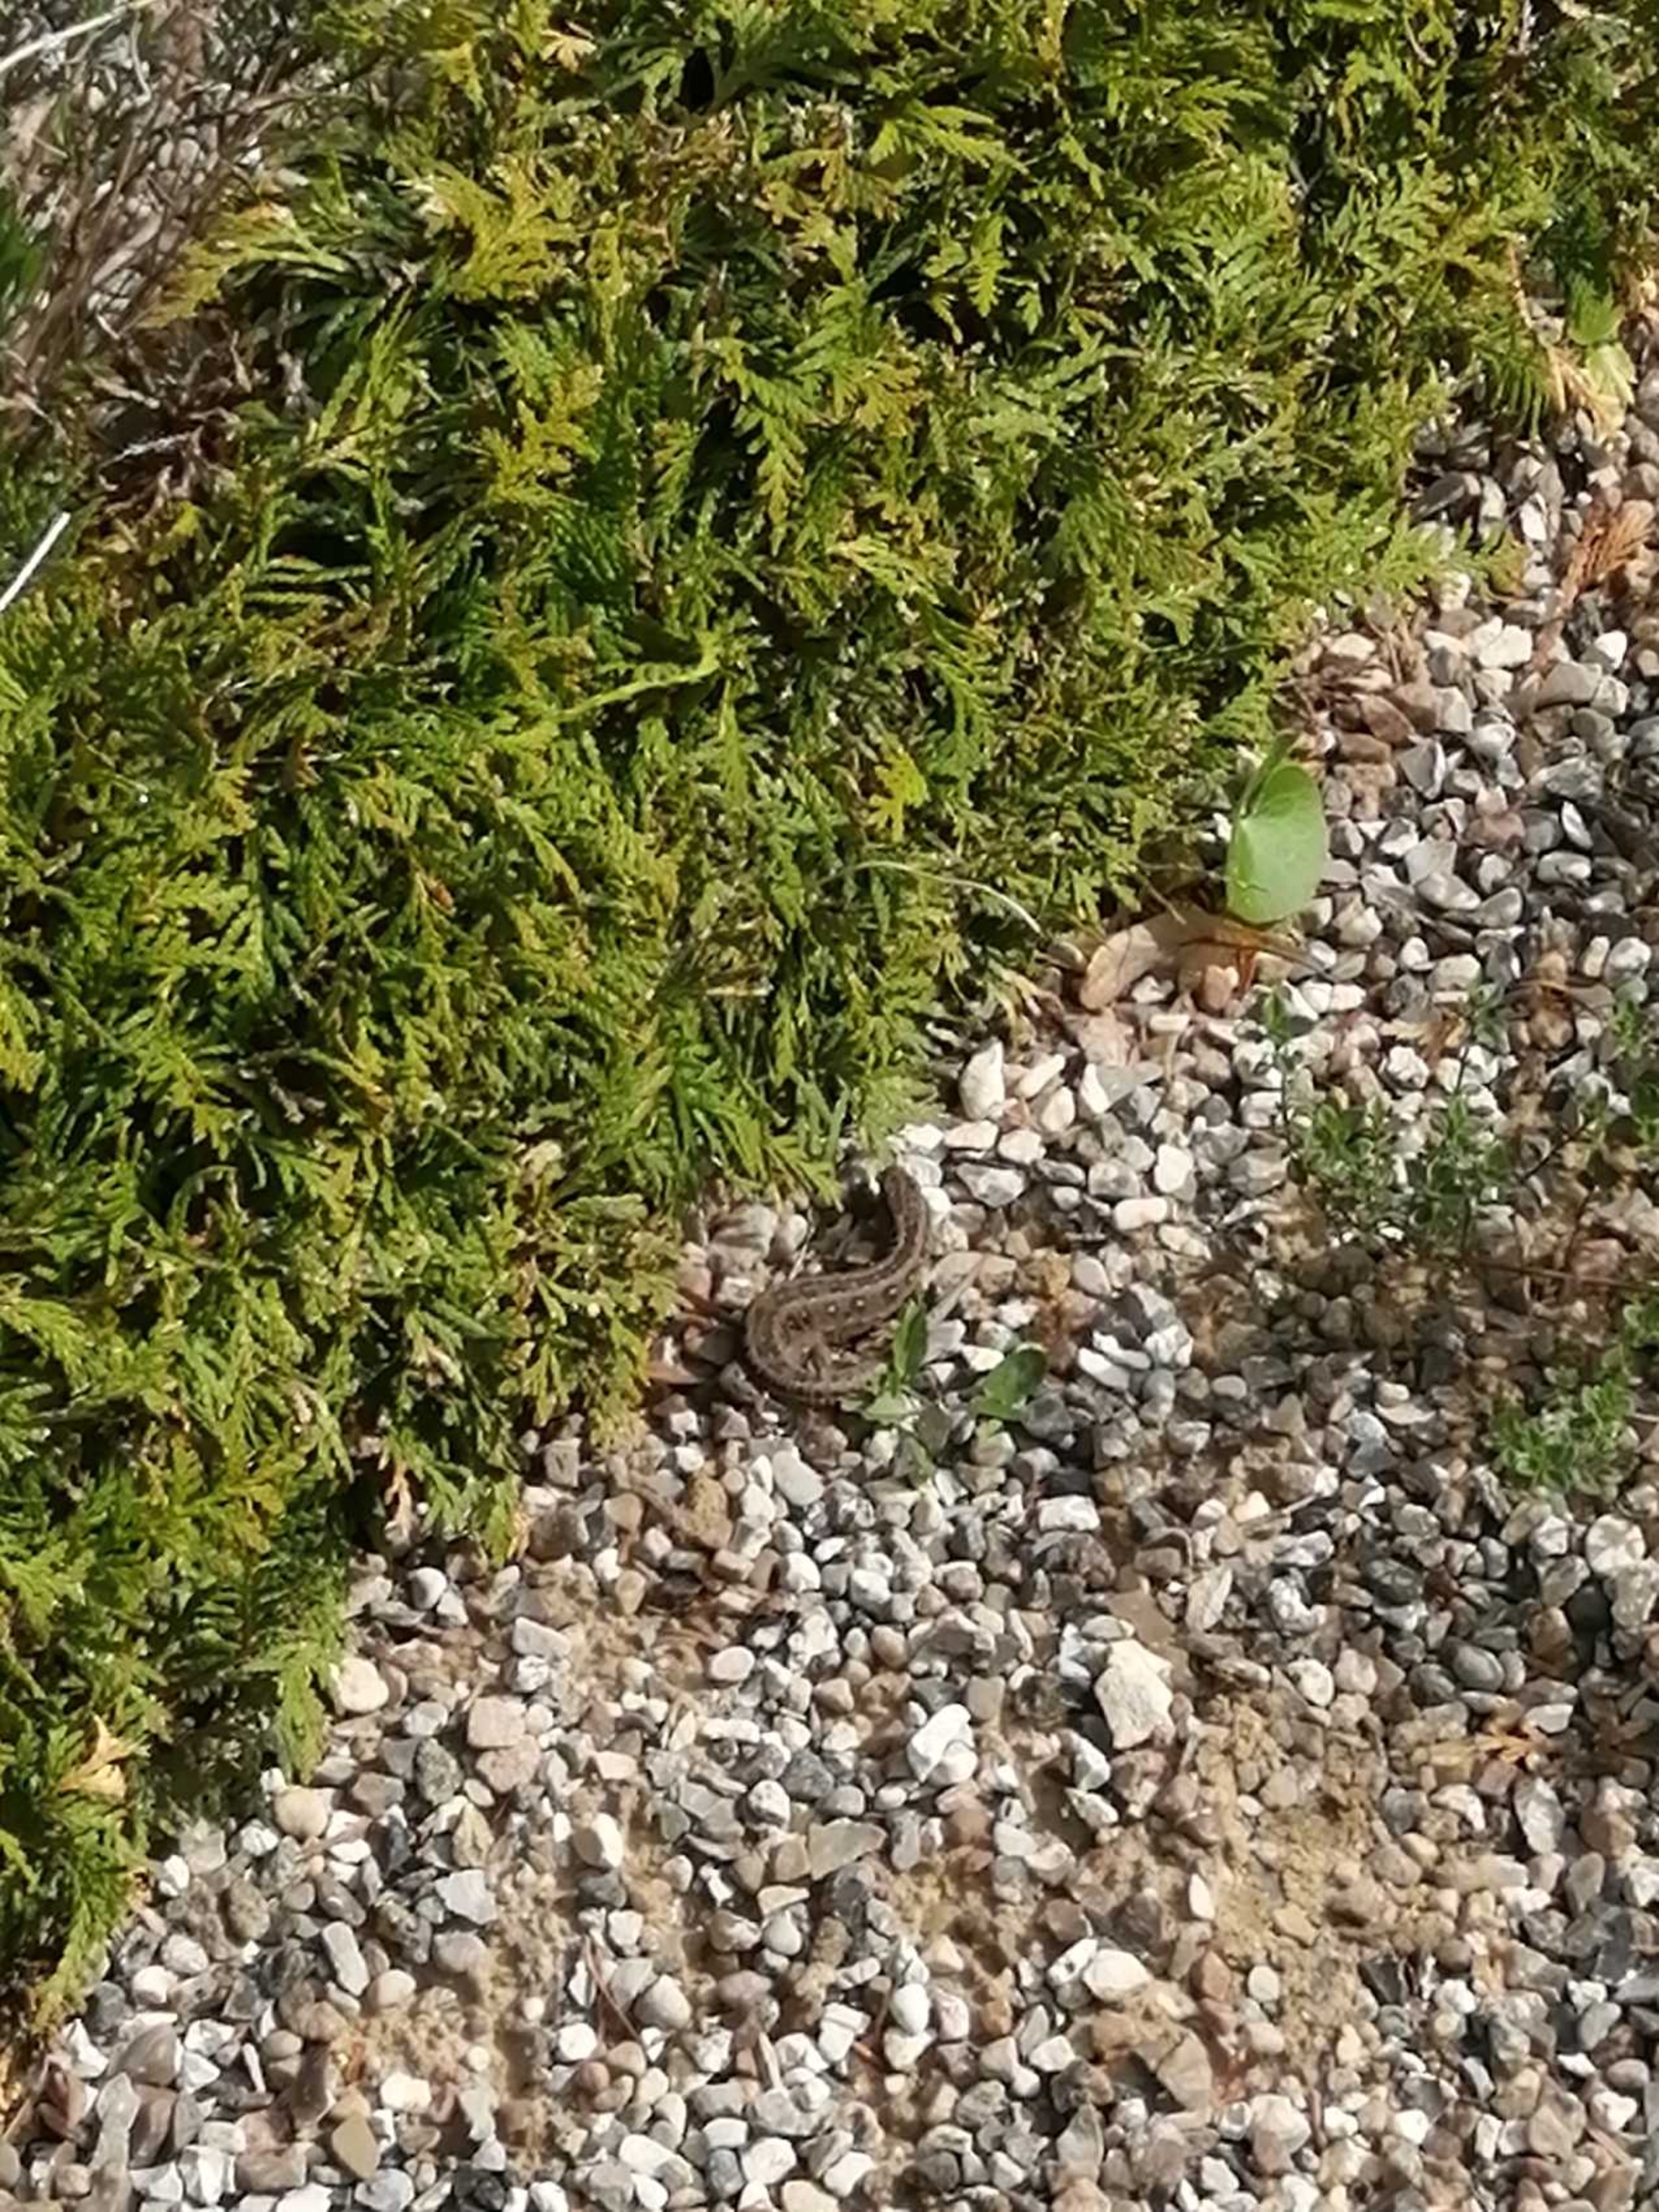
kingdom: Animalia
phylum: Chordata
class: Squamata
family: Lacertidae
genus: Lacerta
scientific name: Lacerta agilis
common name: Markfirben
